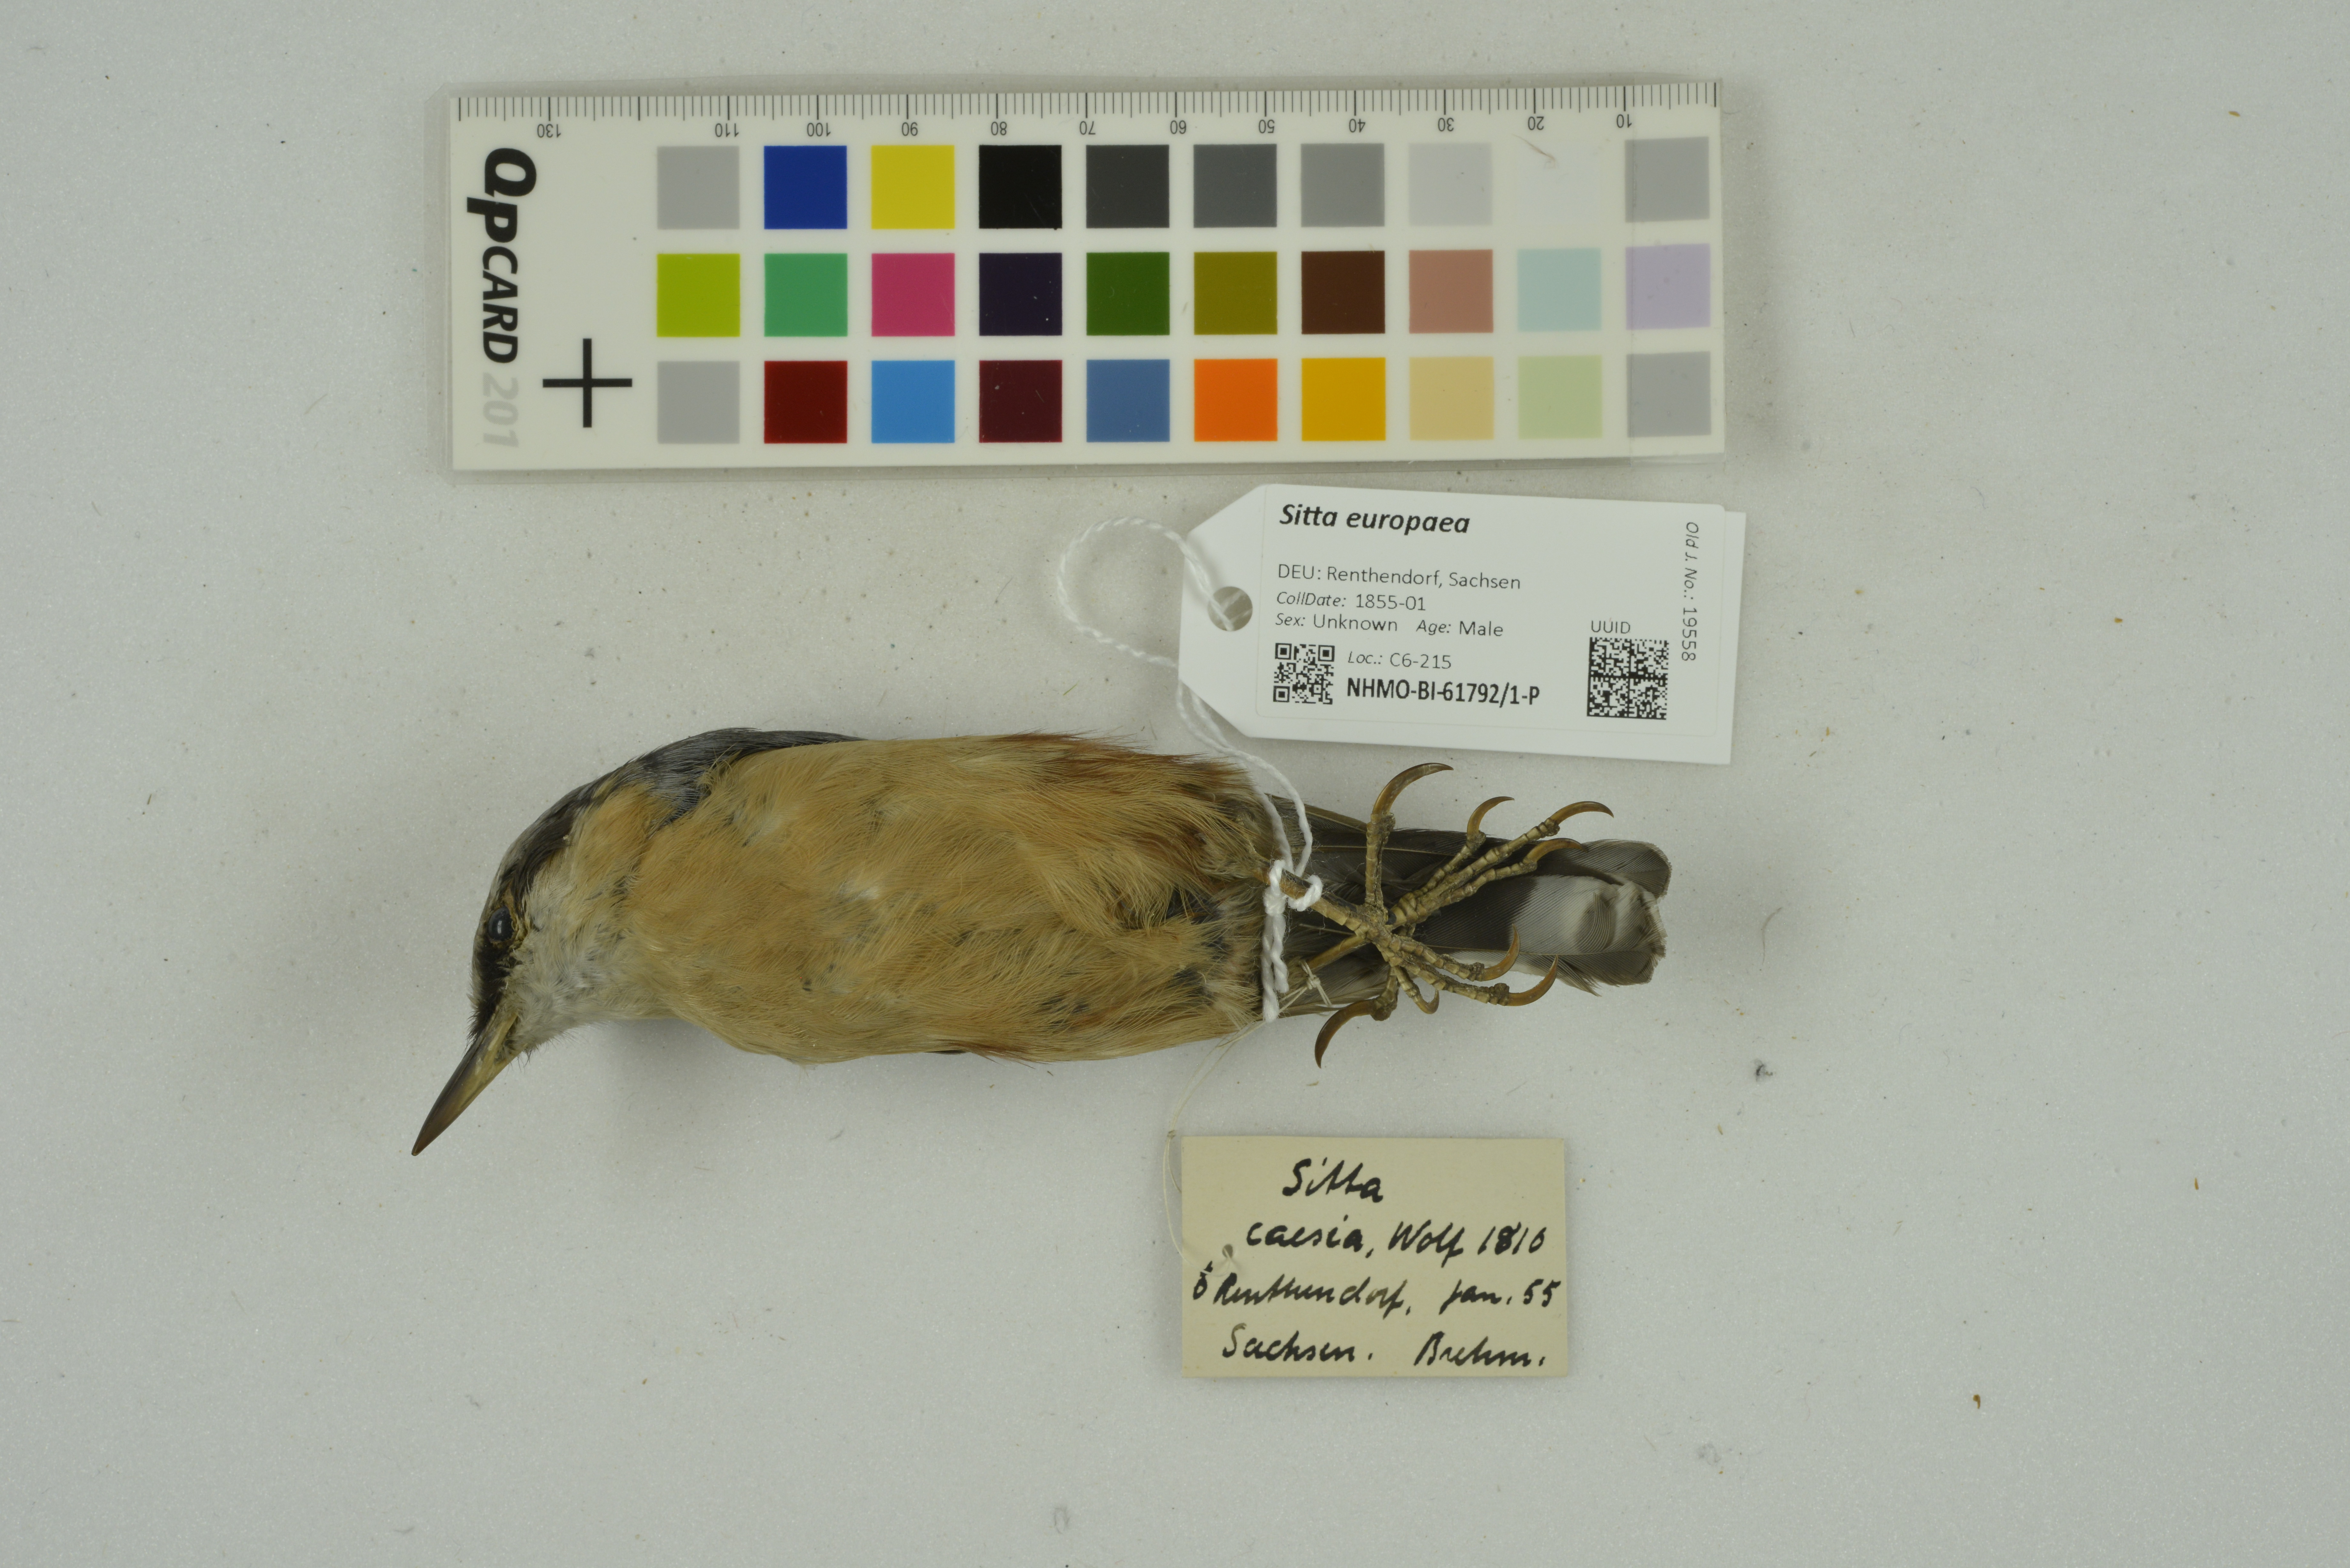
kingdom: Animalia
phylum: Chordata
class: Aves
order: Passeriformes
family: Sittidae
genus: Sitta
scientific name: Sitta europaea
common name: Eurasian nuthatch
